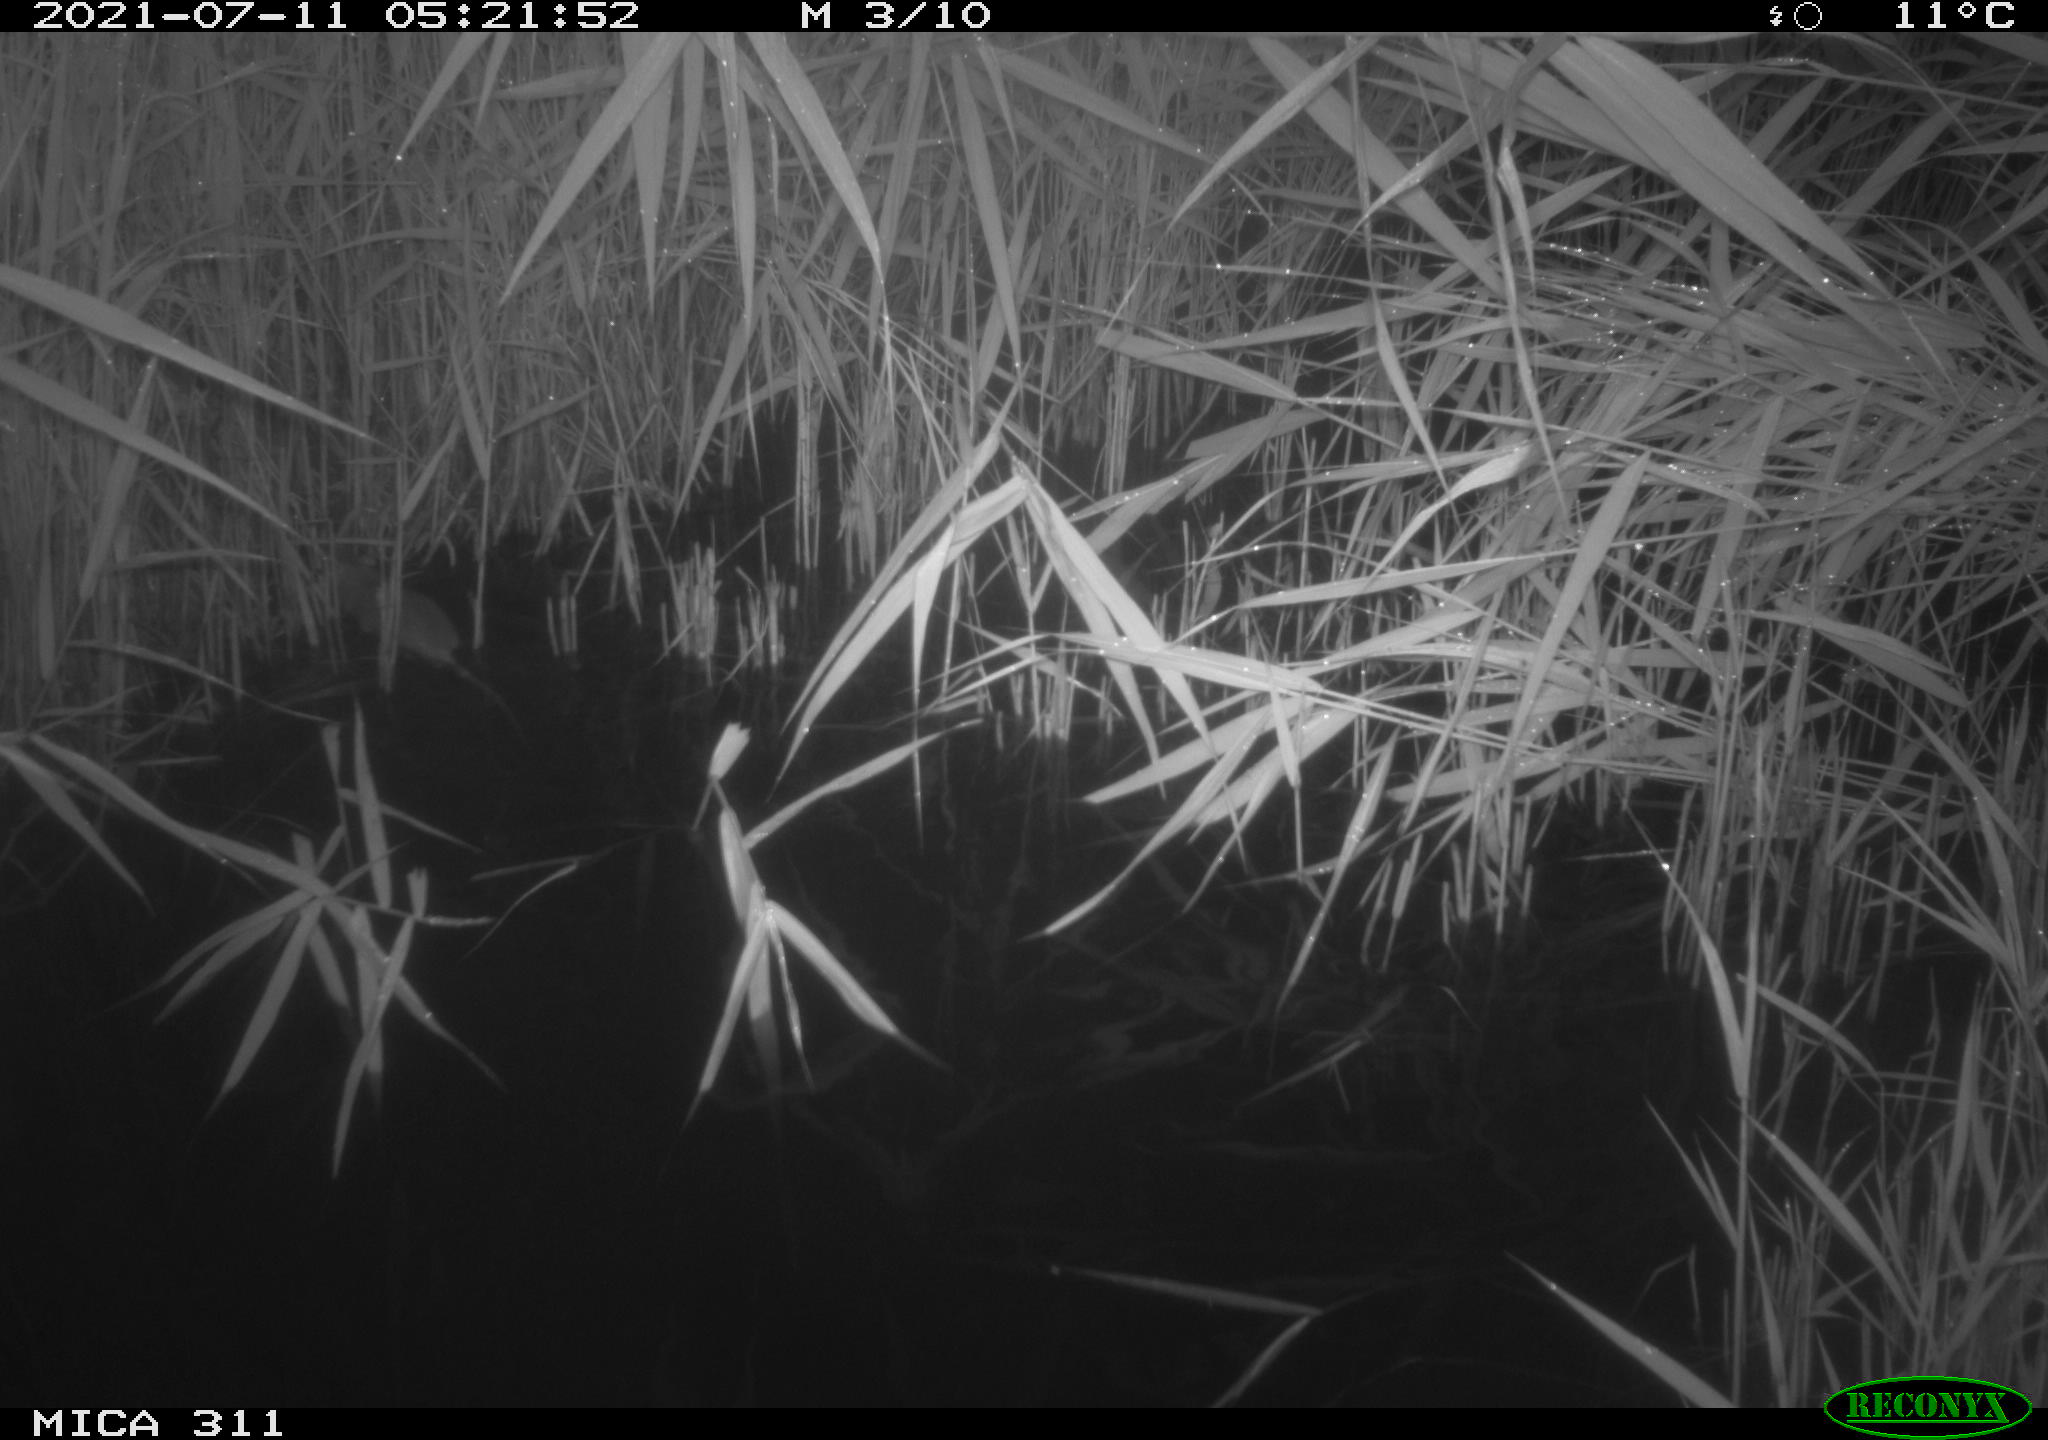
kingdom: Animalia
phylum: Chordata
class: Mammalia
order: Rodentia
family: Muridae
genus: Rattus
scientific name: Rattus norvegicus
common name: Brown rat
